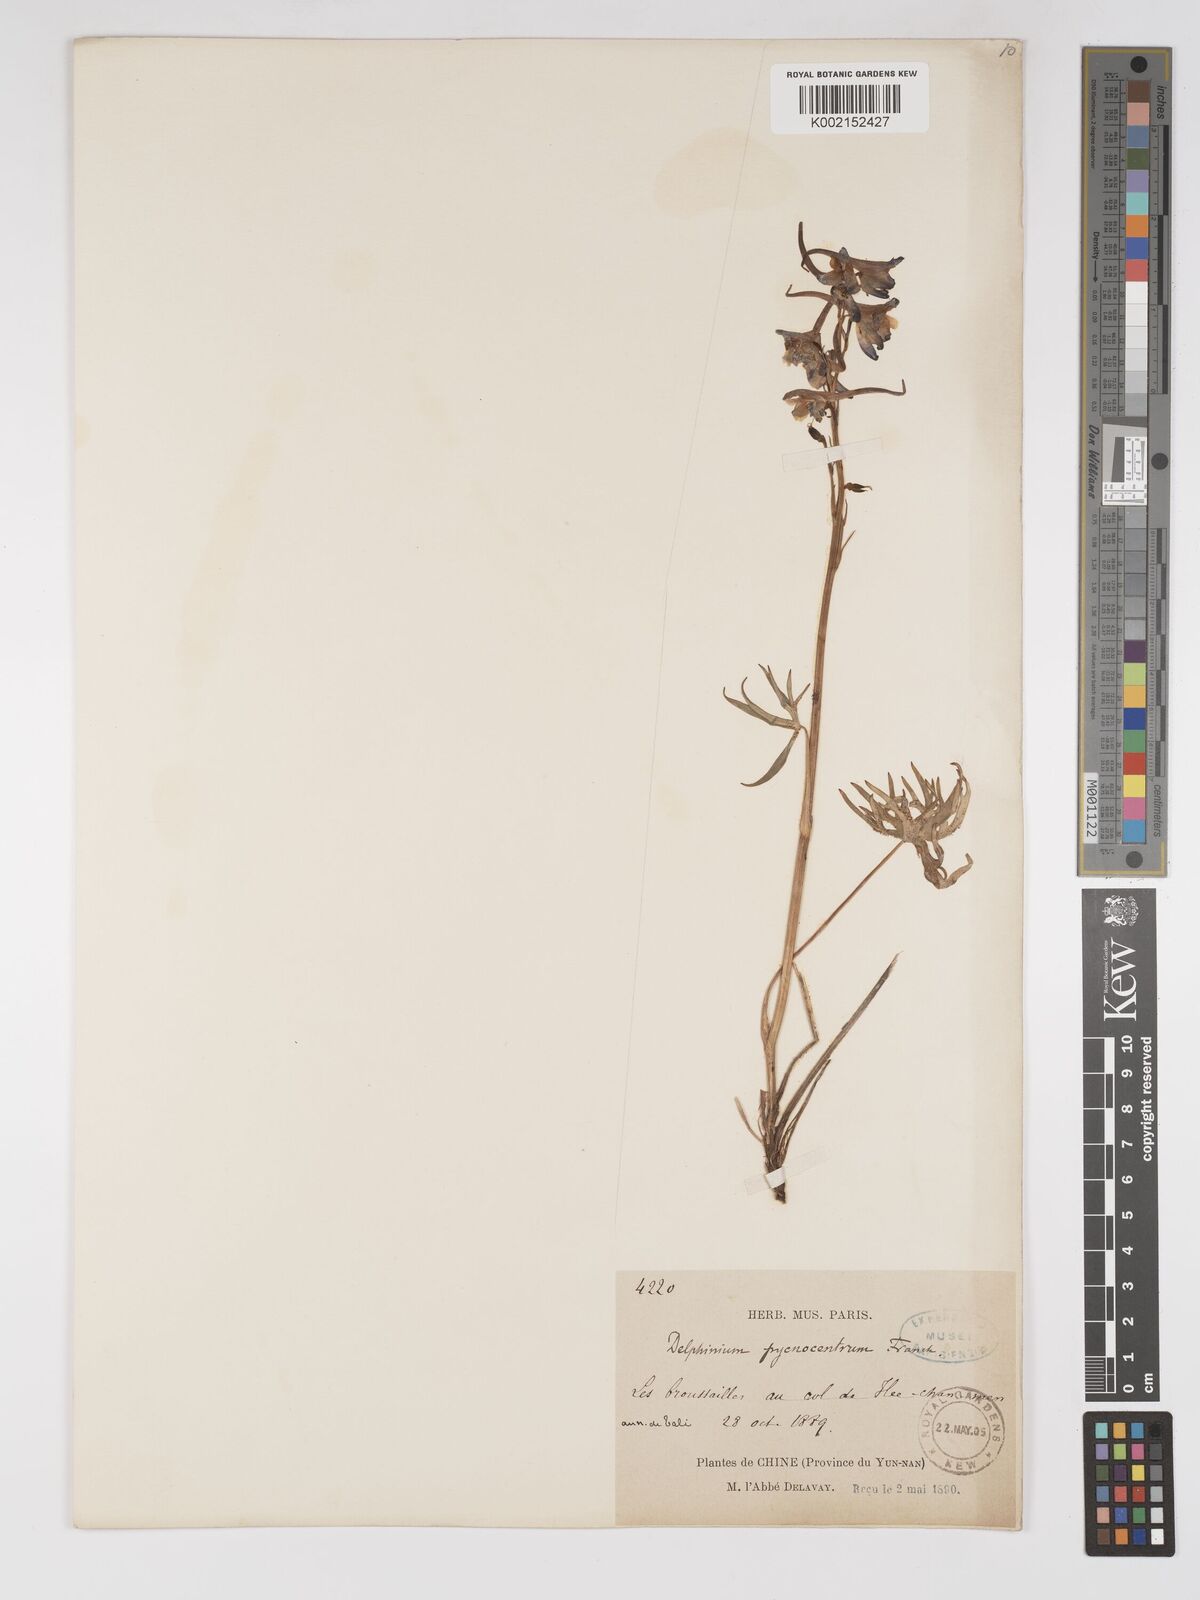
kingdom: Plantae
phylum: Tracheophyta
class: Magnoliopsida
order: Ranunculales
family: Ranunculaceae
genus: Delphinium
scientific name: Delphinium pycnocentrum
